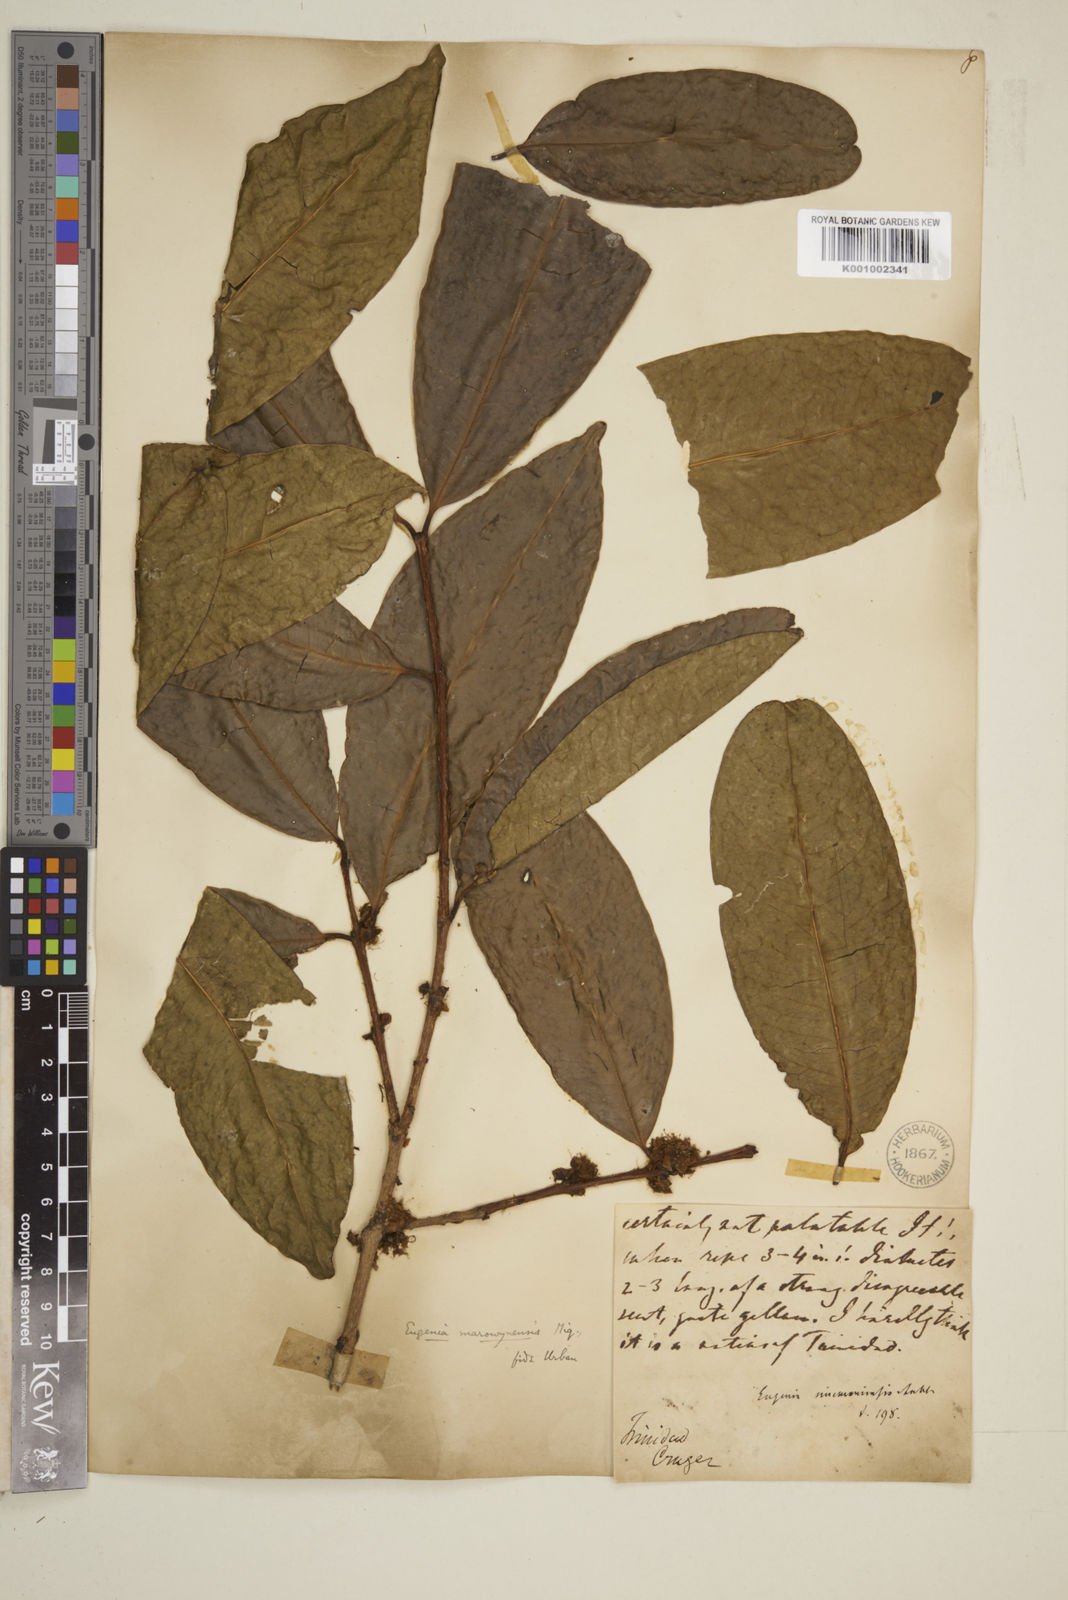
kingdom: Plantae
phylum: Tracheophyta
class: Magnoliopsida
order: Myrtales
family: Myrtaceae
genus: Eugenia
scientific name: Eugenia coffeifolia
